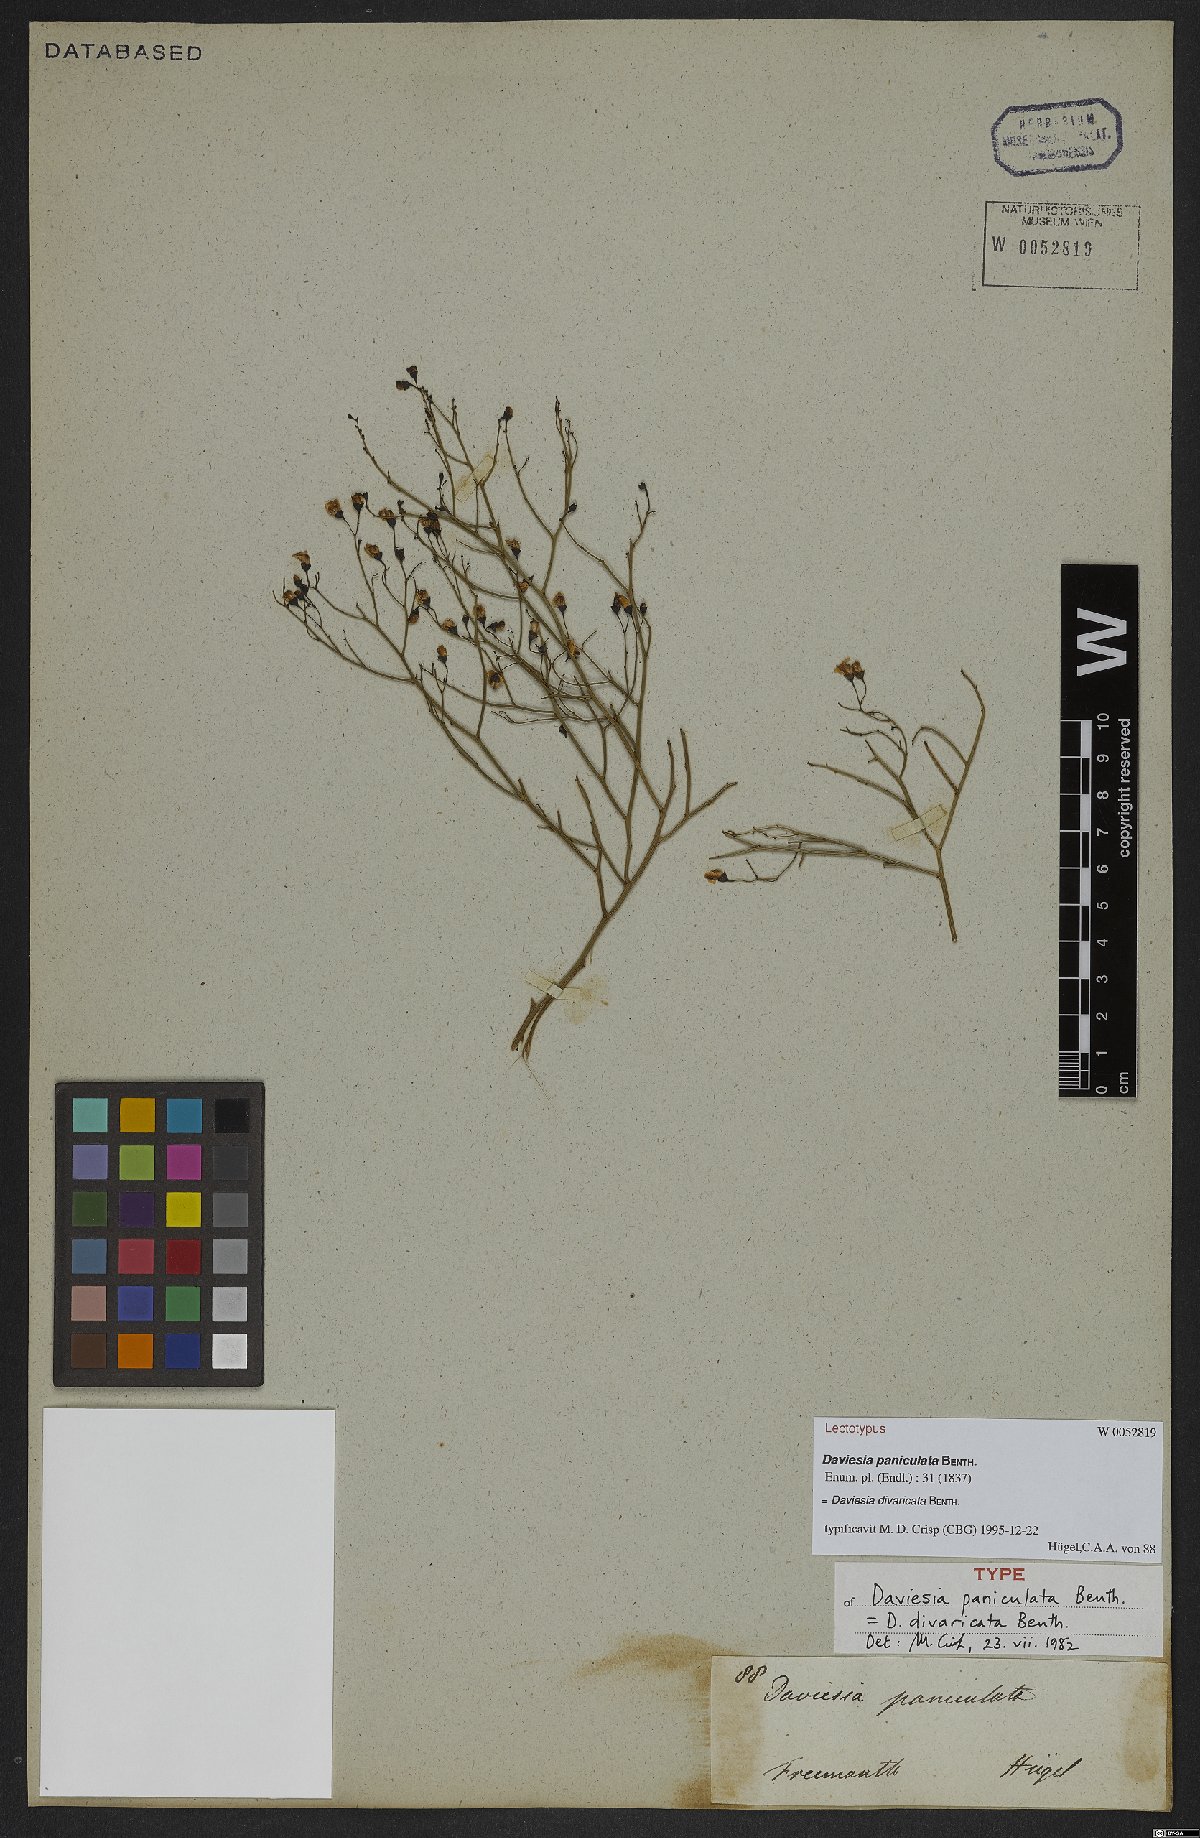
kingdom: Plantae
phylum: Tracheophyta
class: Magnoliopsida
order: Fabales
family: Fabaceae
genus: Daviesia
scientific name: Daviesia divaricata
